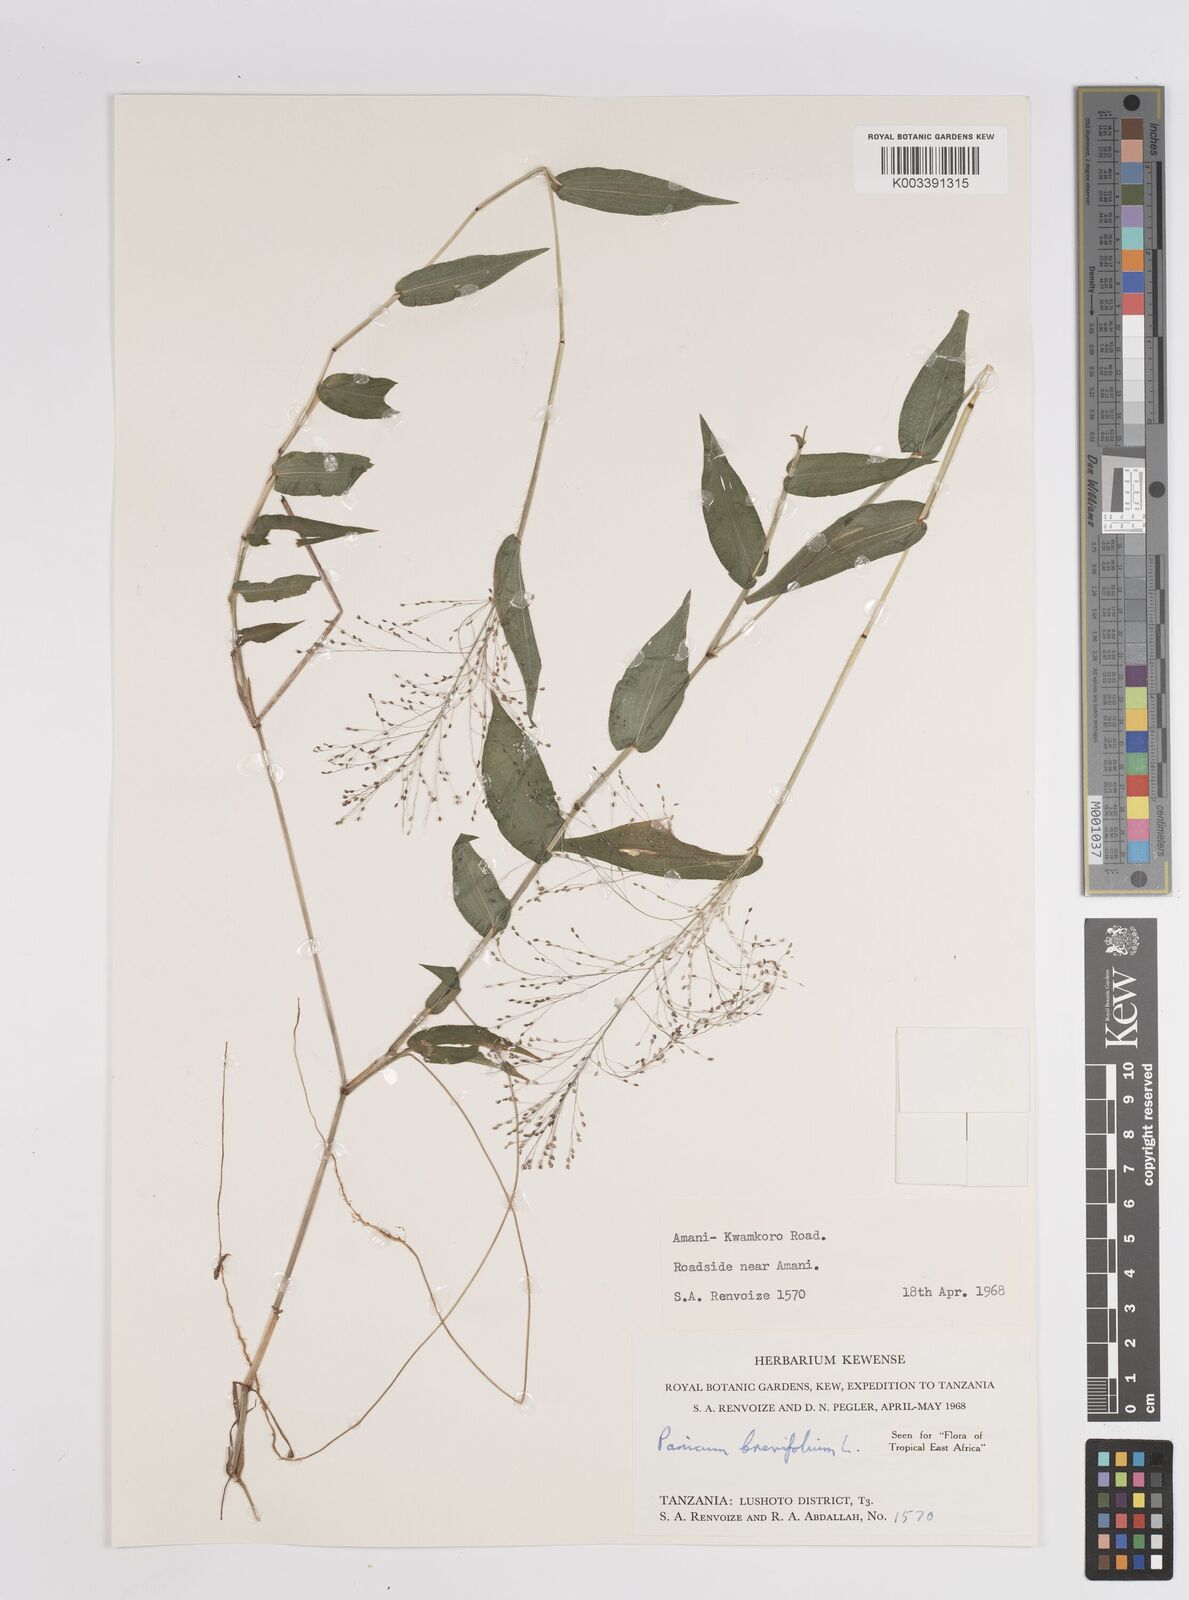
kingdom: Plantae
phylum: Tracheophyta
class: Liliopsida
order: Poales
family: Poaceae
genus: Panicum
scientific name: Panicum brevifolium
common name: Shortleaf panic grass
